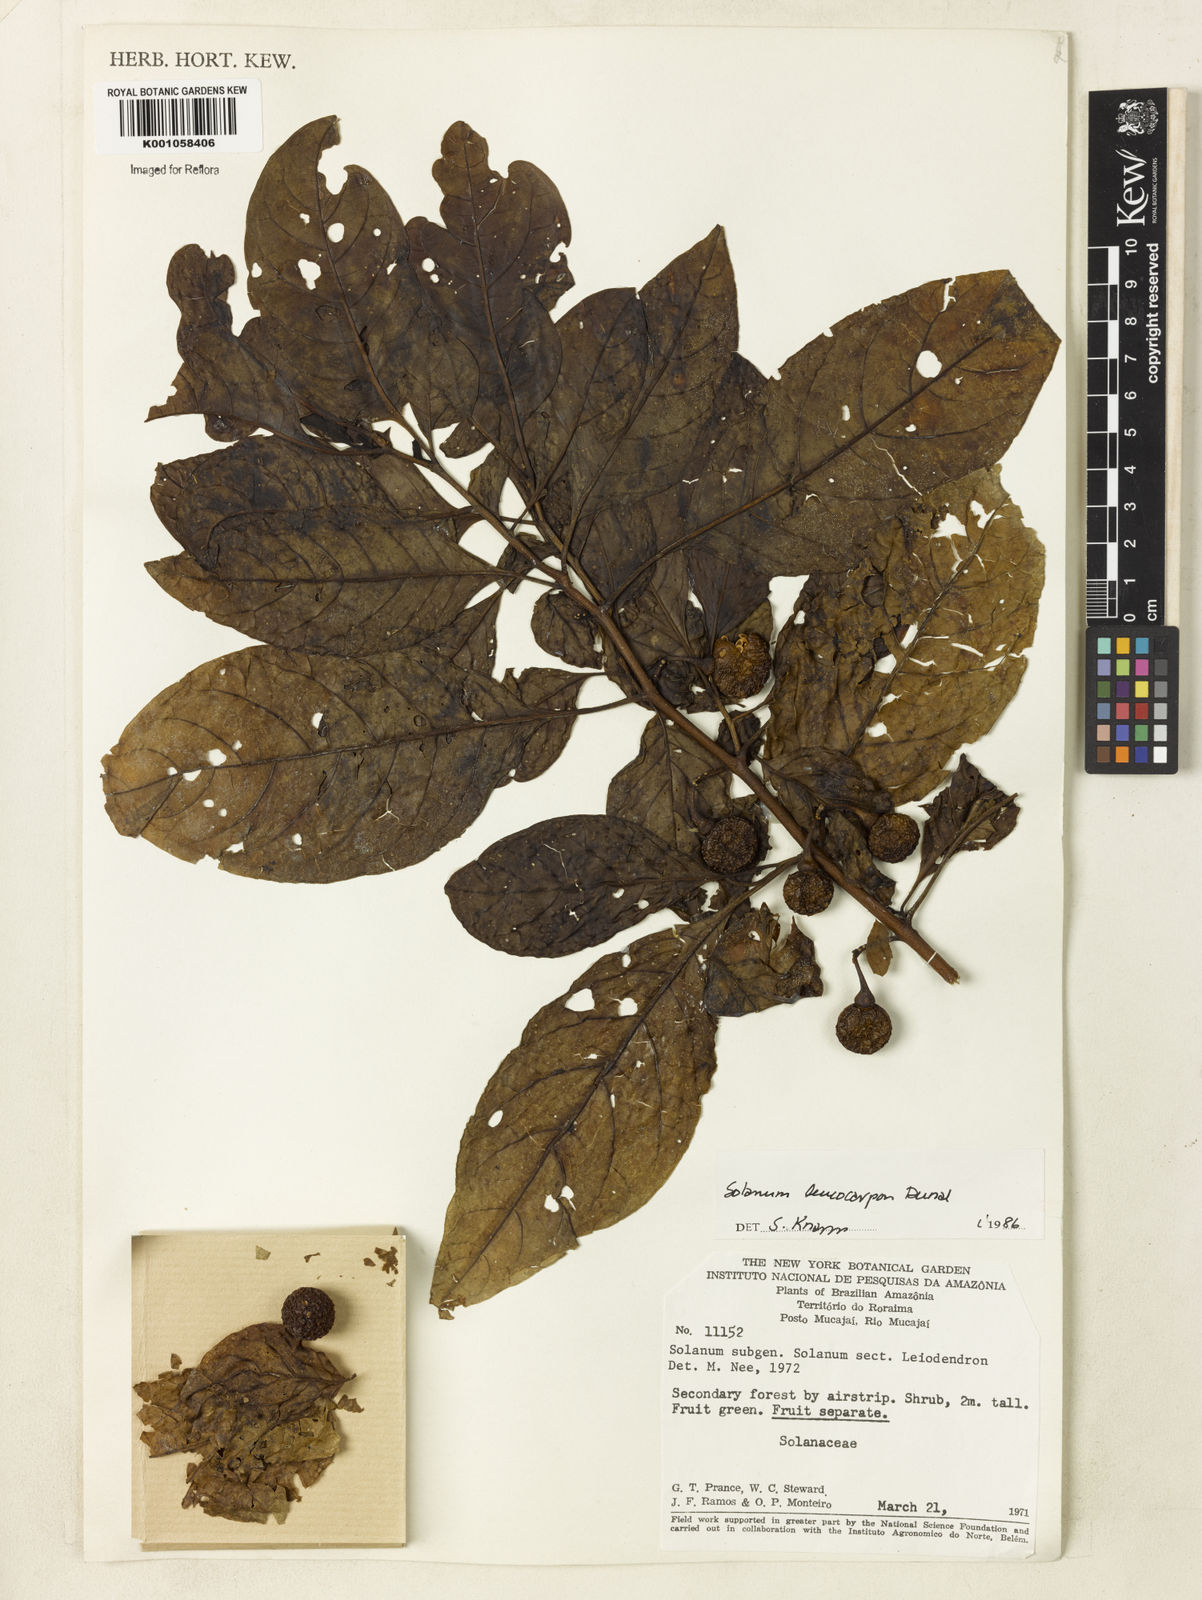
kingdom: Plantae
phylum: Tracheophyta
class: Magnoliopsida
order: Solanales
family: Solanaceae
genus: Solanum
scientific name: Solanum leucocarpon
